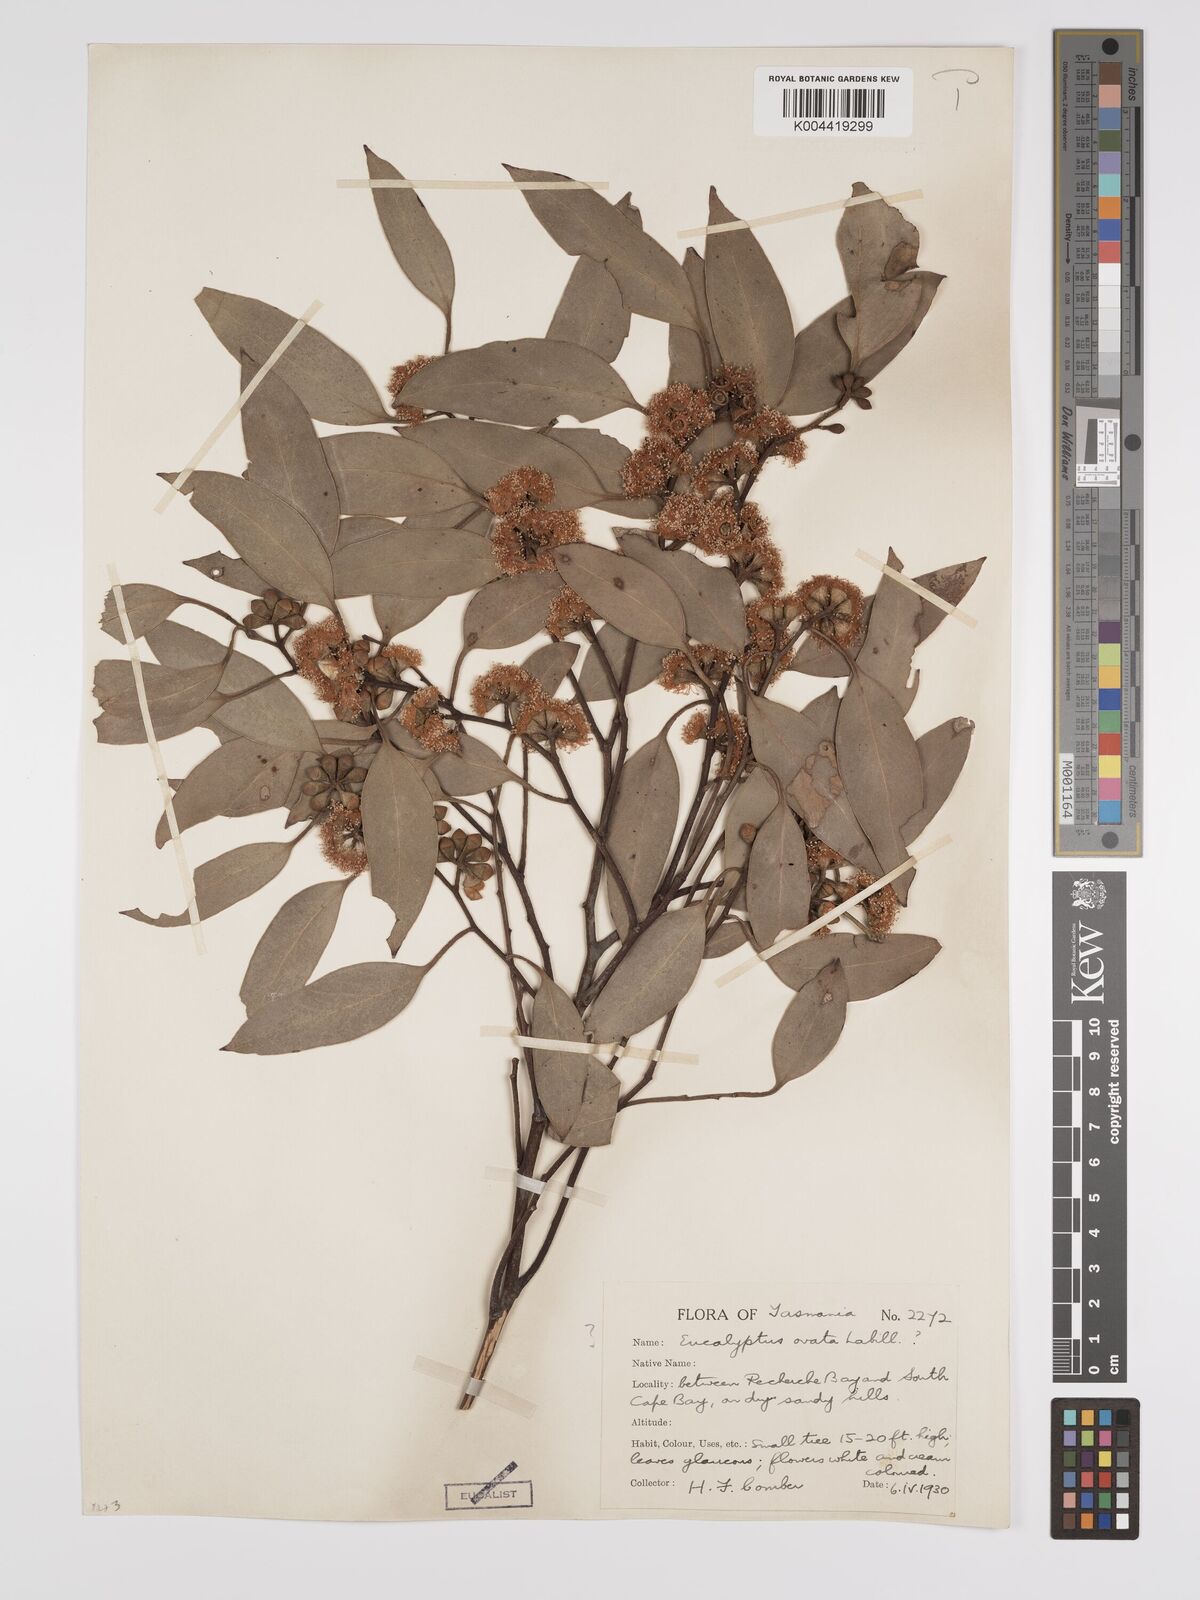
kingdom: Plantae
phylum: Tracheophyta
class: Magnoliopsida
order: Myrtales
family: Myrtaceae
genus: Eucalyptus
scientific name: Eucalyptus ovata
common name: Black-gum
